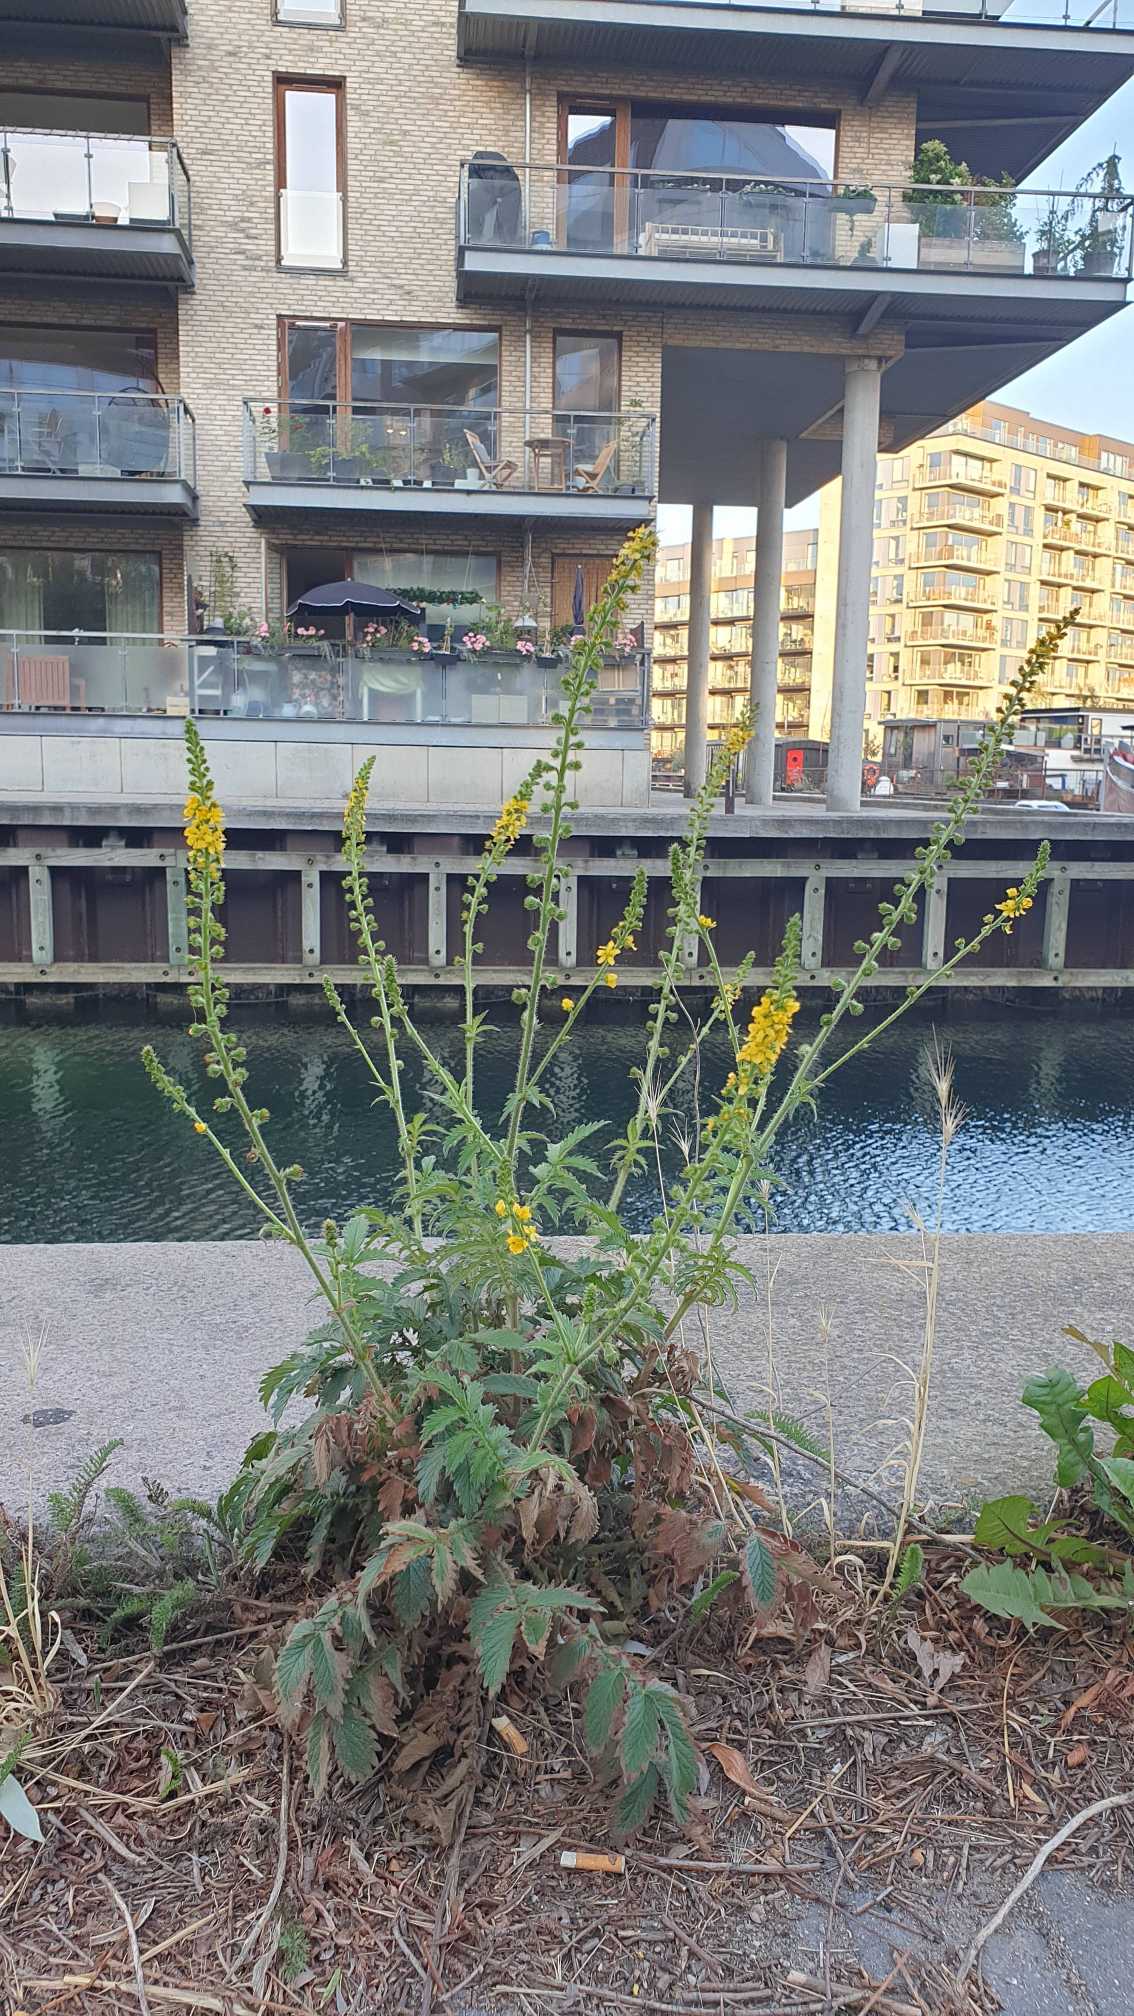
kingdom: Plantae
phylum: Tracheophyta
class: Magnoliopsida
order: Rosales
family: Rosaceae
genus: Agrimonia
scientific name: Agrimonia eupatoria
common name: Almindelig agermåne
